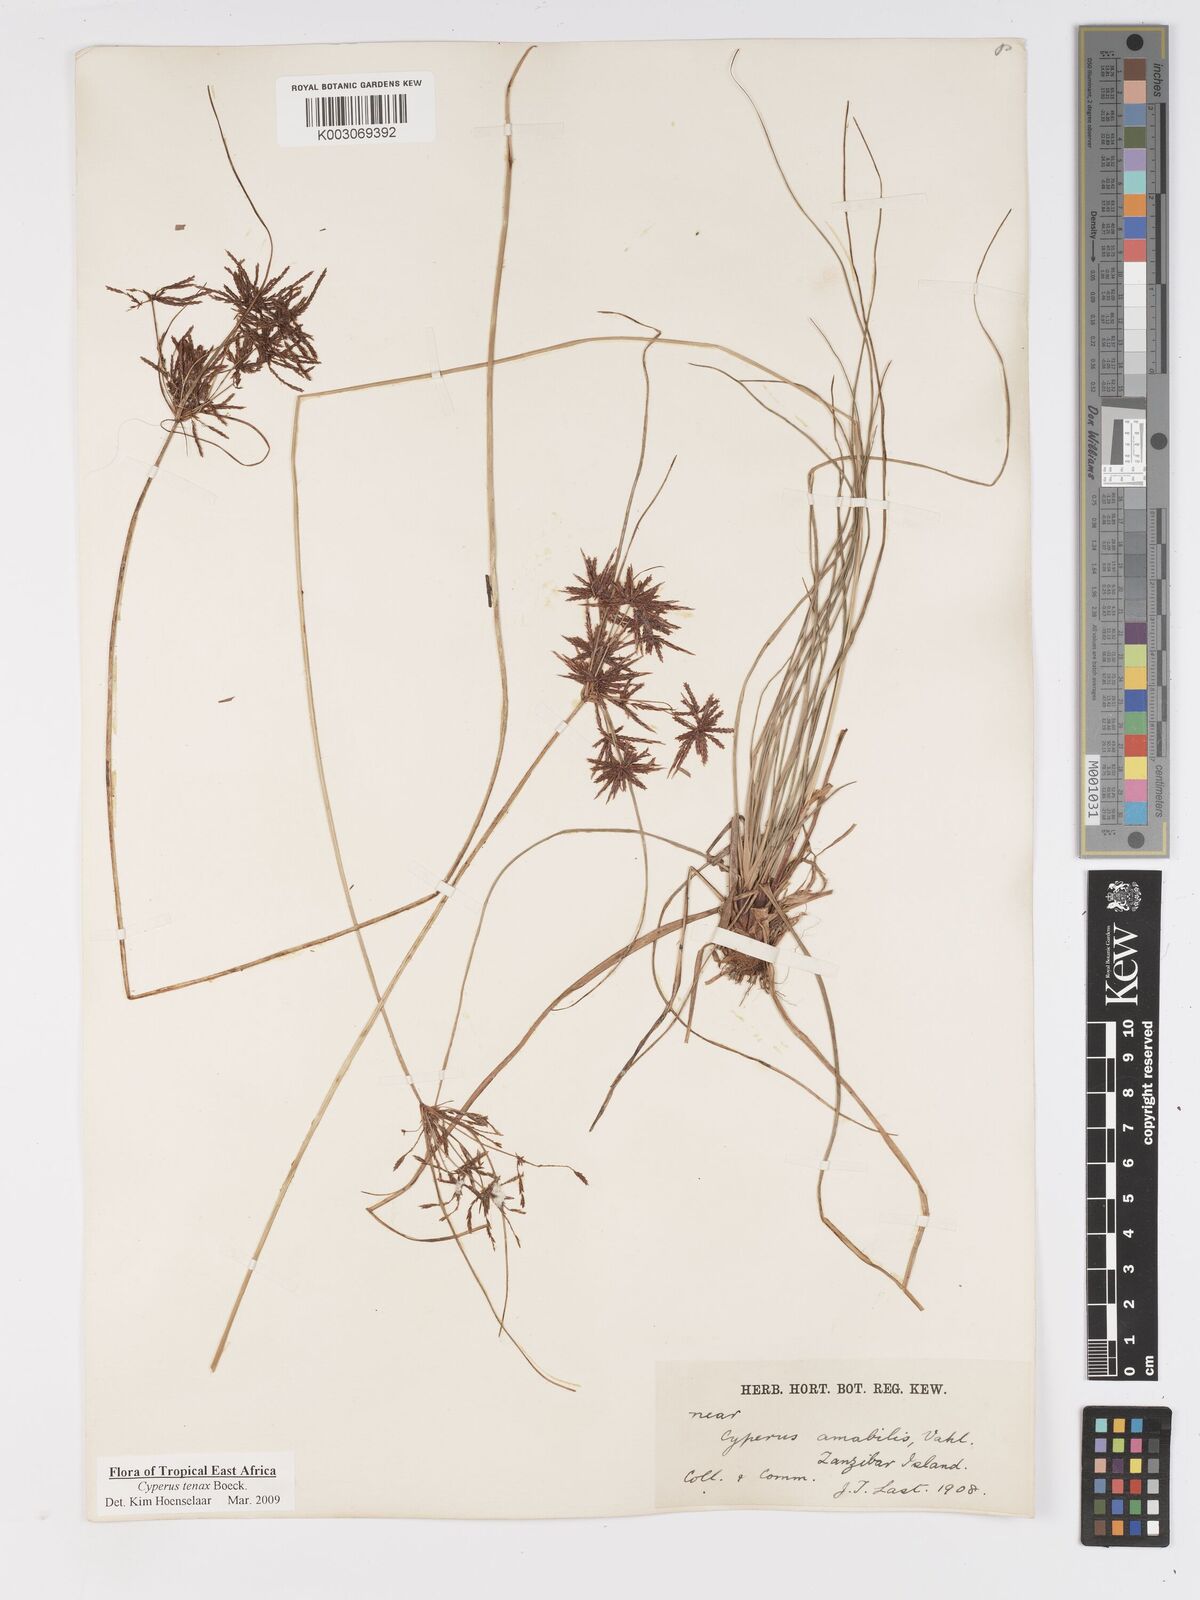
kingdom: Plantae
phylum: Tracheophyta
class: Liliopsida
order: Poales
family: Cyperaceae
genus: Cyperus
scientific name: Cyperus tenax
